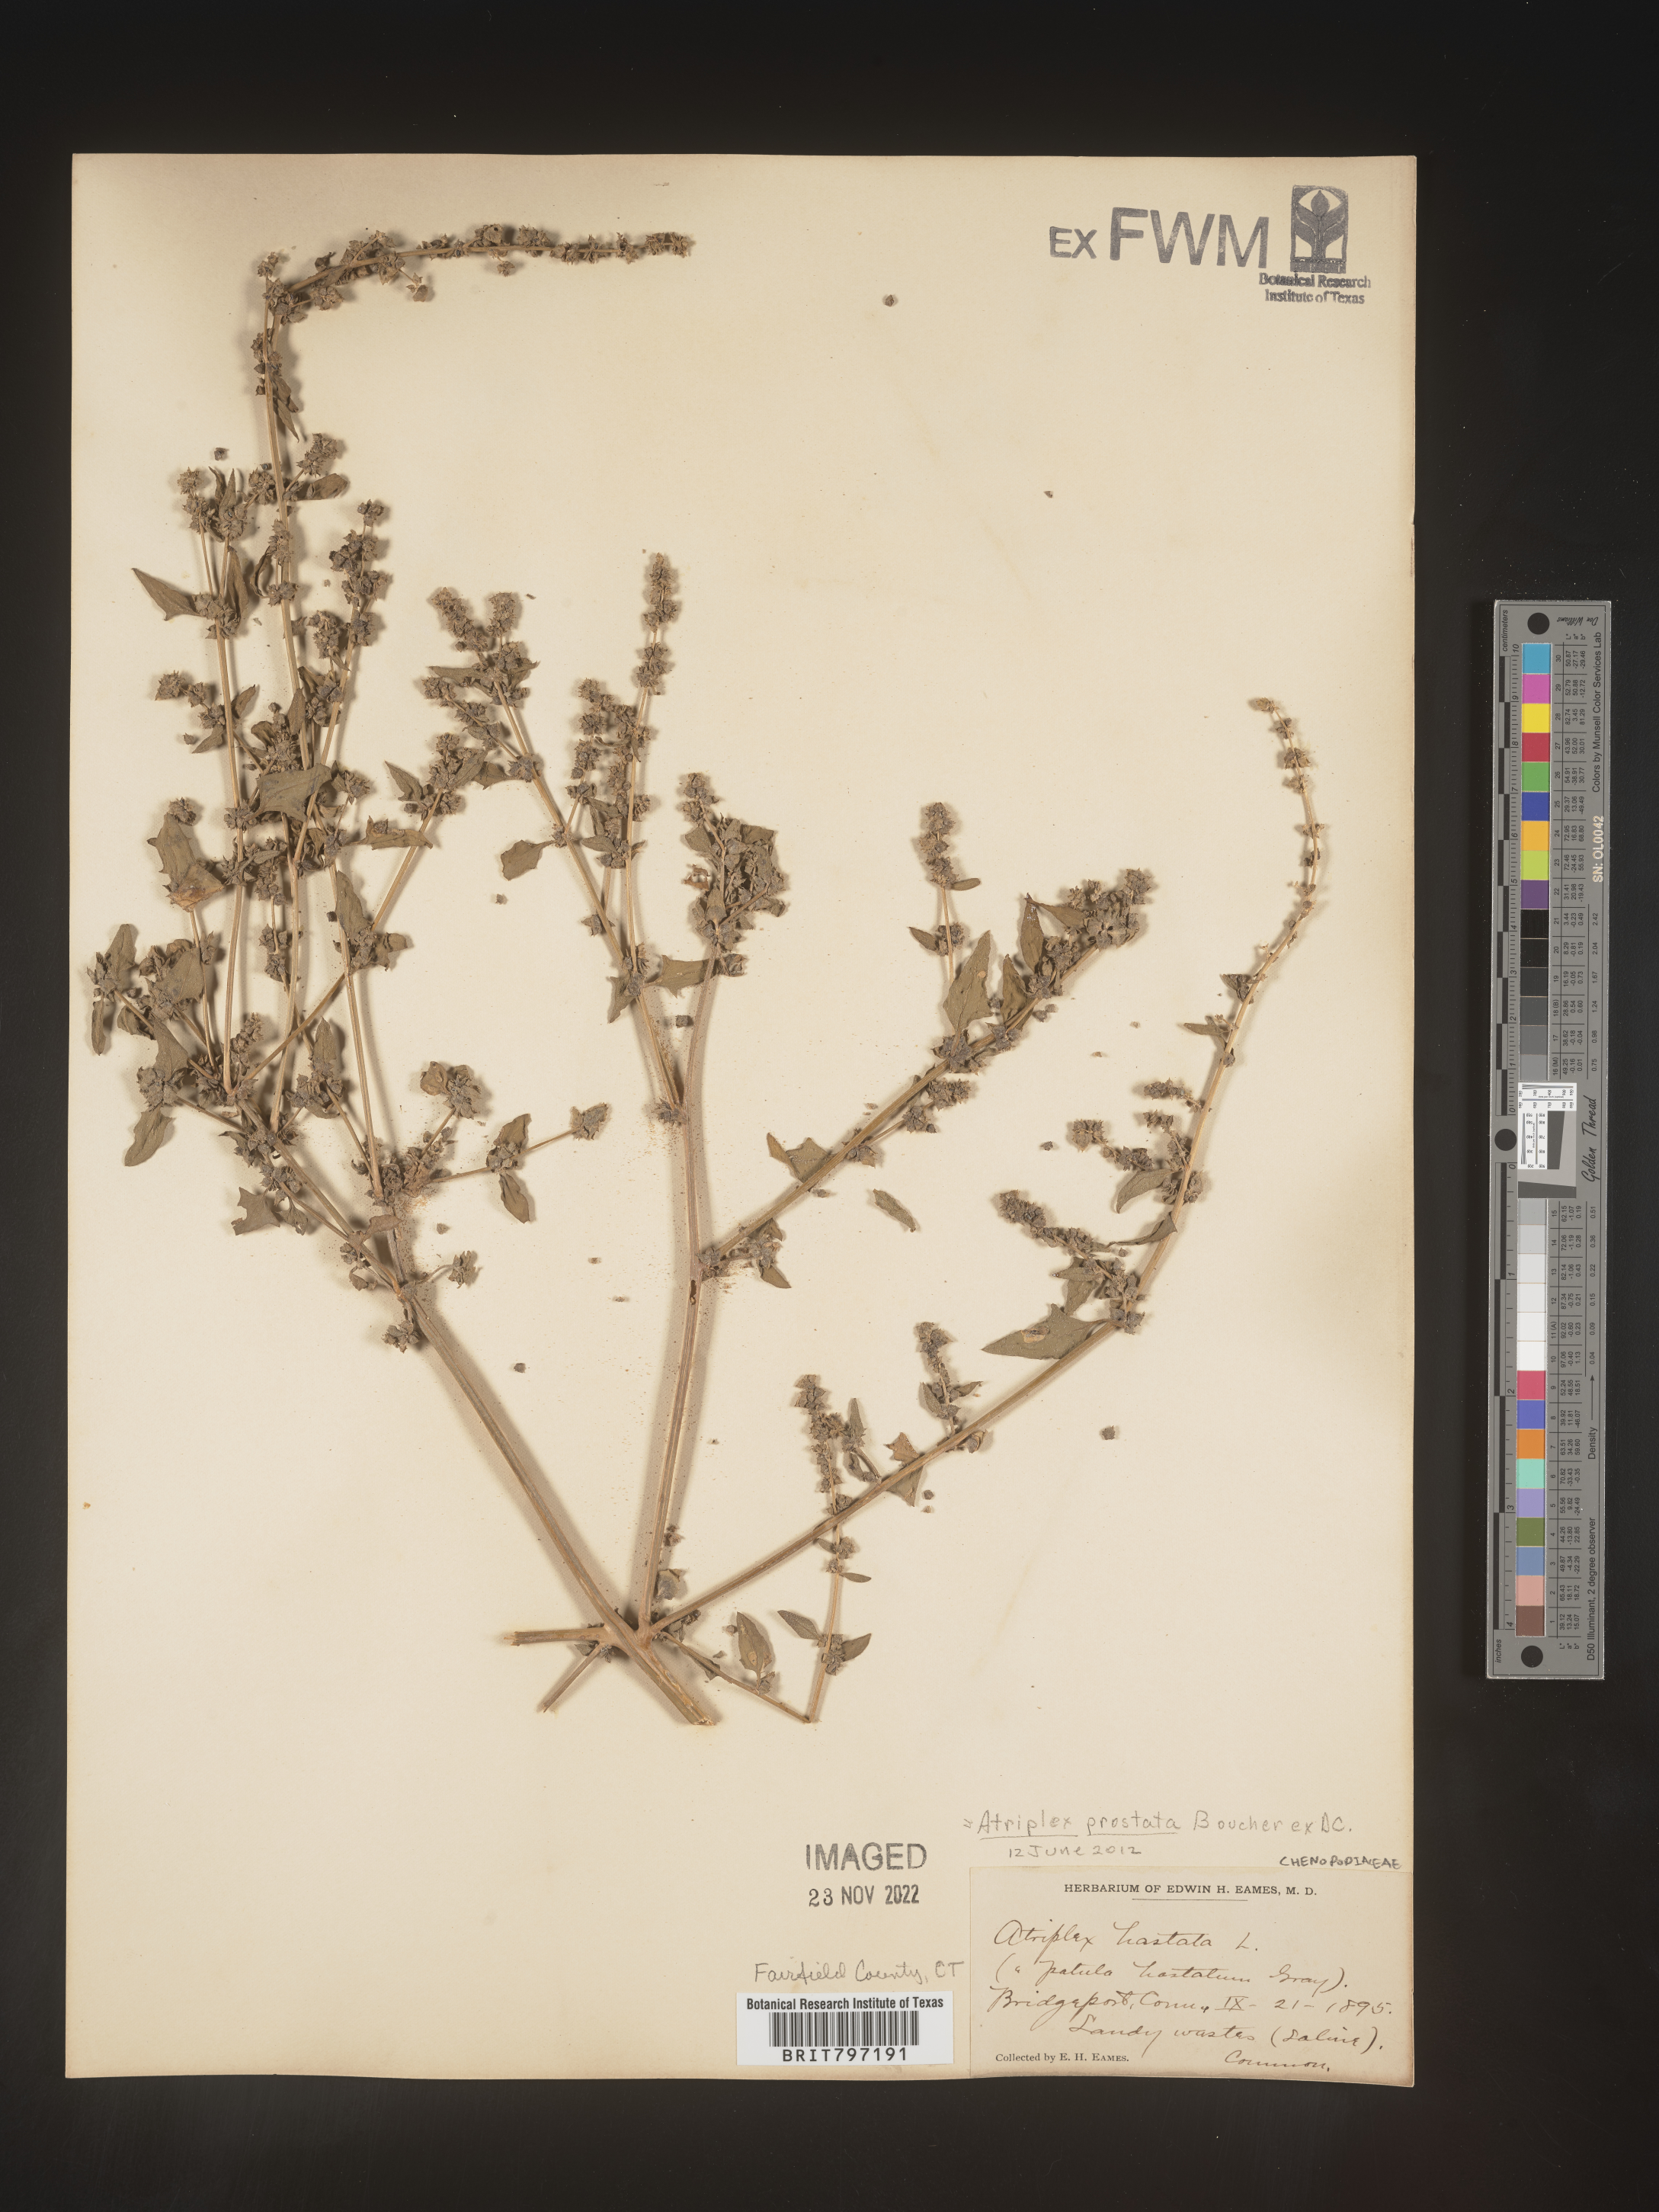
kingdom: Plantae
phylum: Tracheophyta
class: Magnoliopsida
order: Caryophyllales
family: Amaranthaceae
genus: Atriplex
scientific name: Atriplex prostrata
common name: Spear-leaved orache
